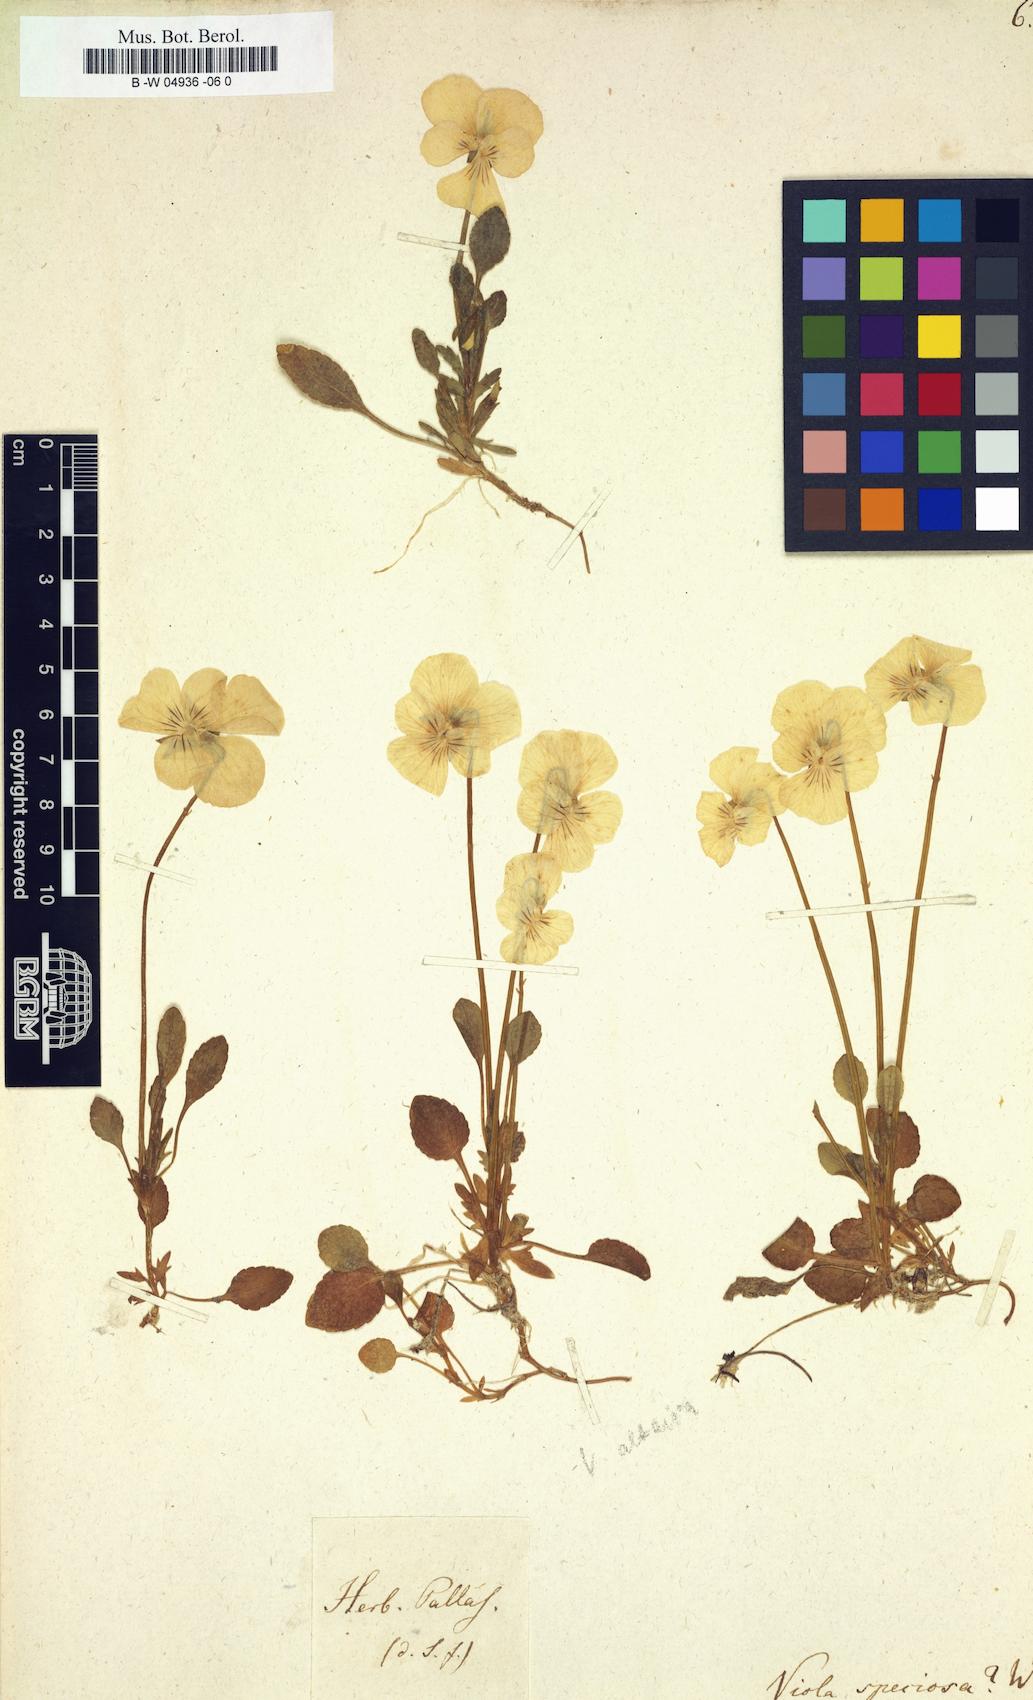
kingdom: Plantae
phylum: Tracheophyta
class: Magnoliopsida
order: Malpighiales
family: Violaceae
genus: Viola
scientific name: Viola
